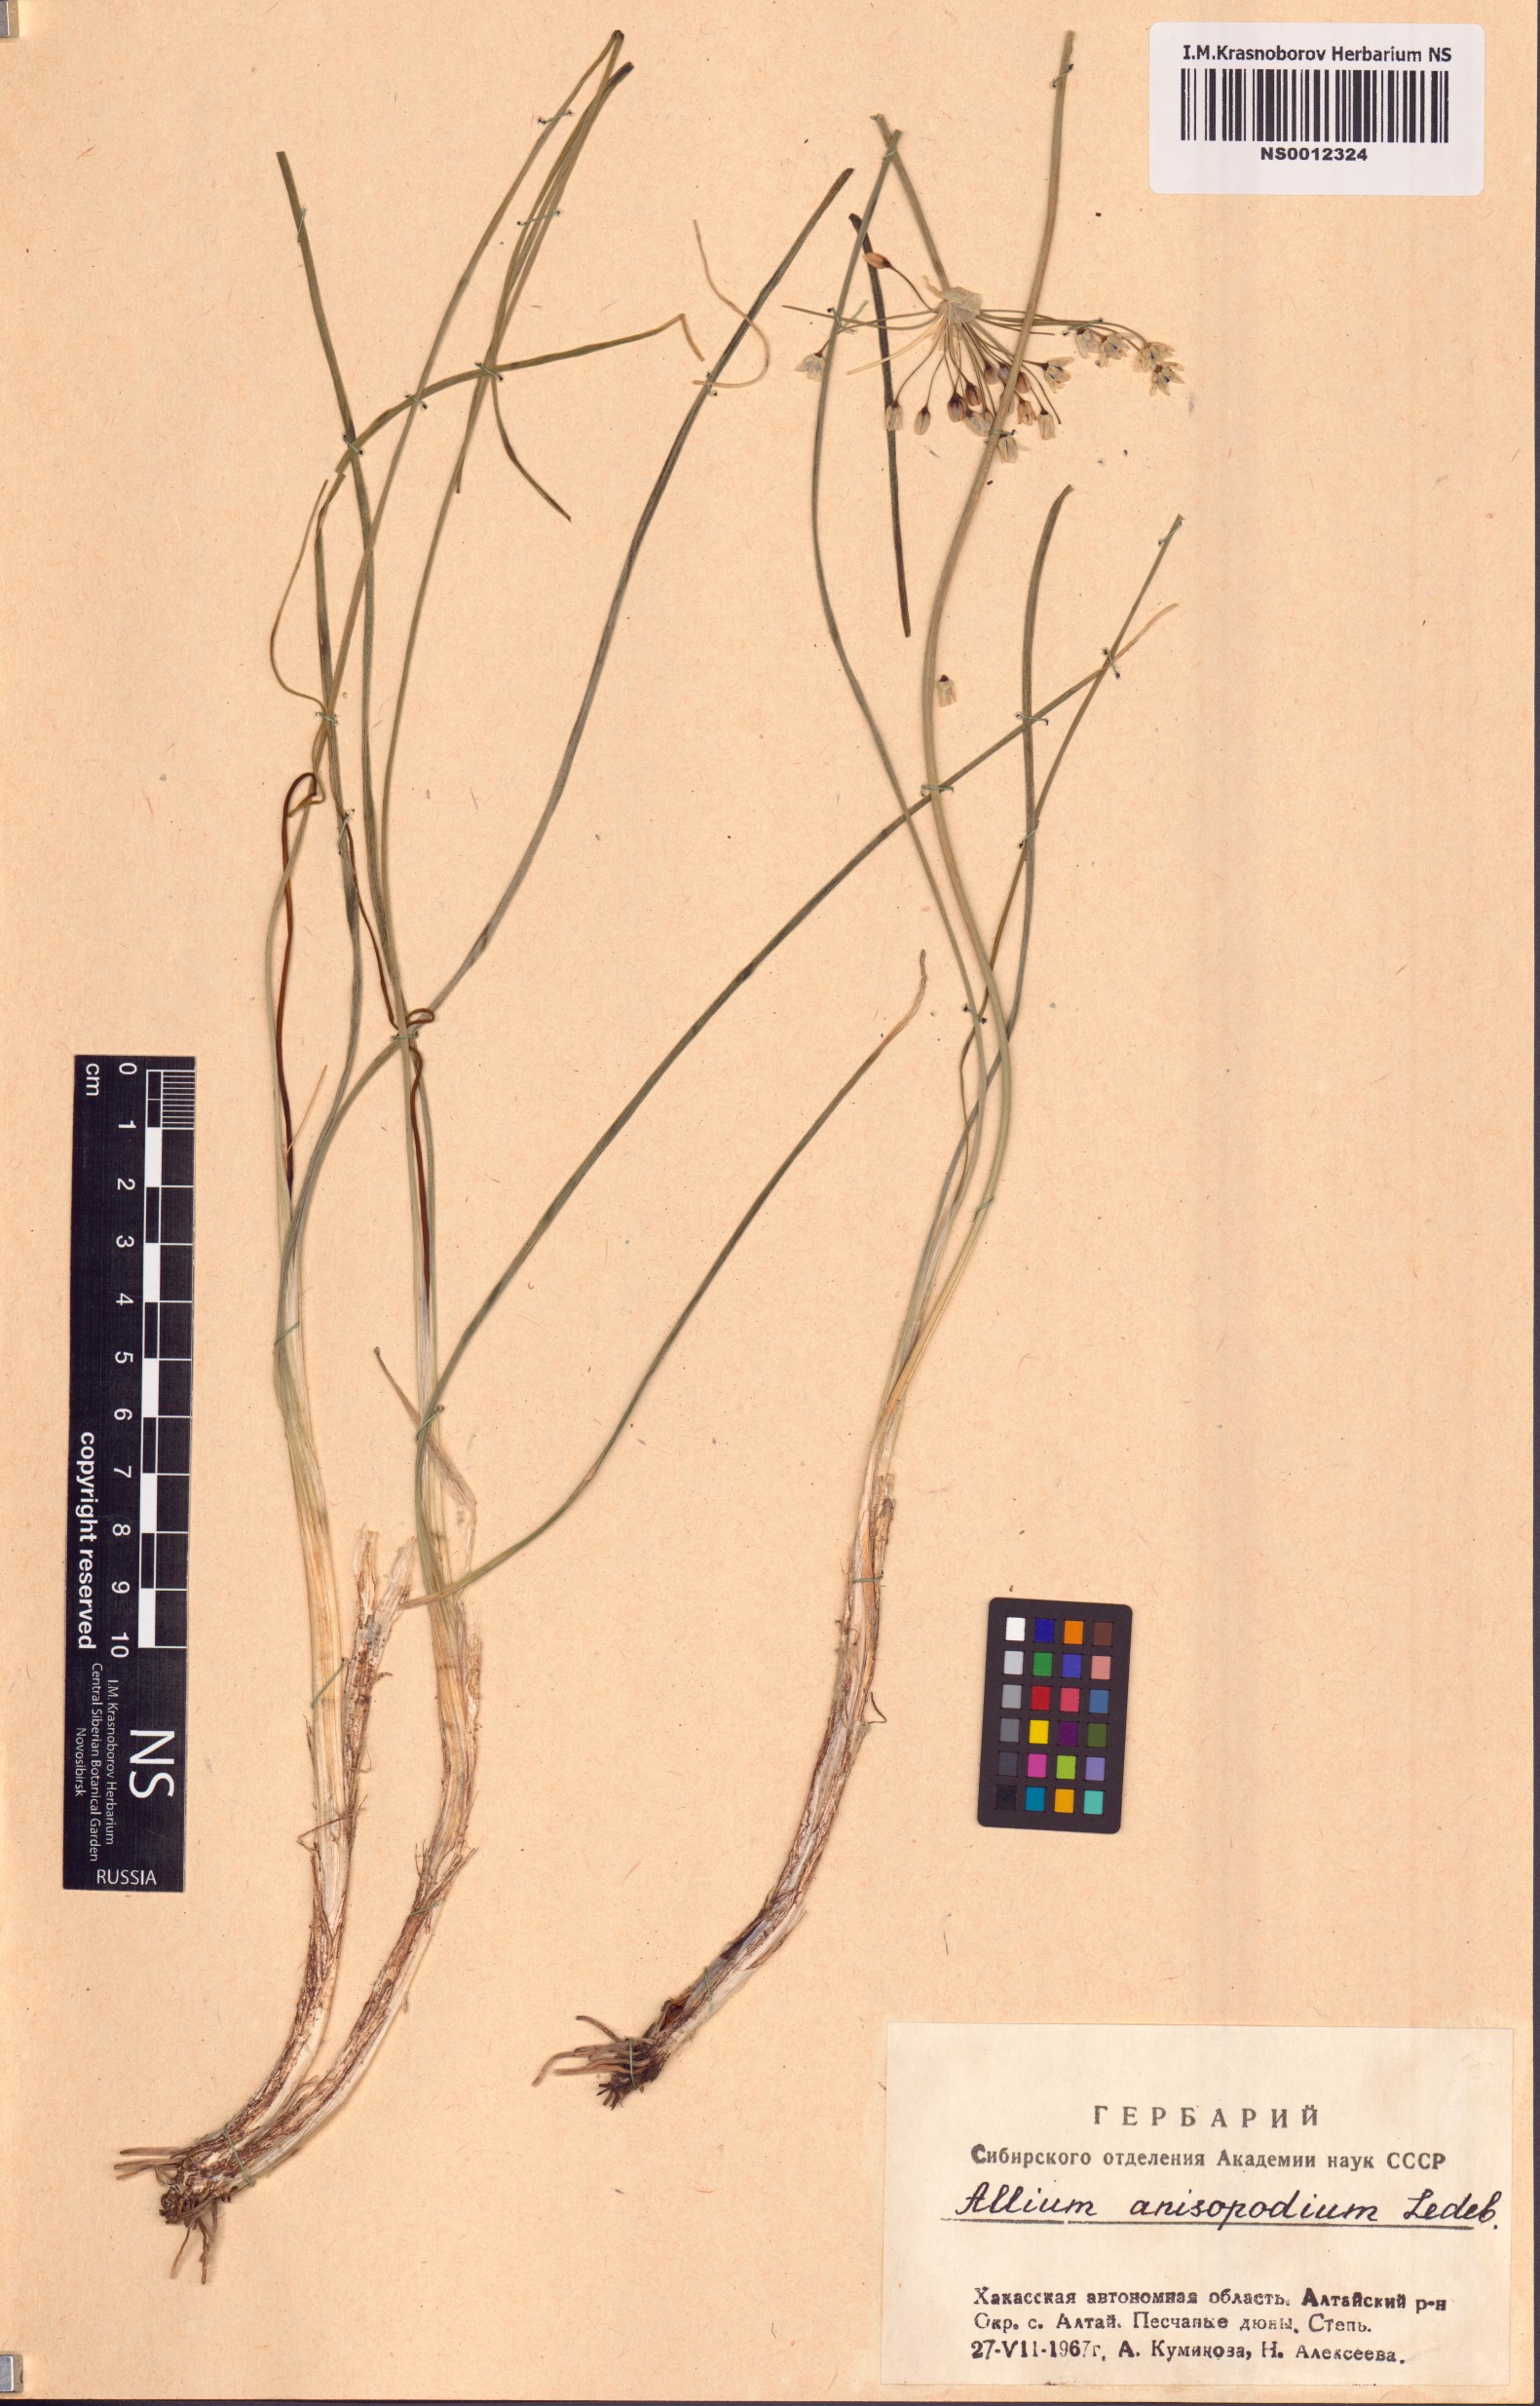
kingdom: Plantae
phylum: Tracheophyta
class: Liliopsida
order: Asparagales
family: Amaryllidaceae
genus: Allium
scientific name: Allium anisopodium
